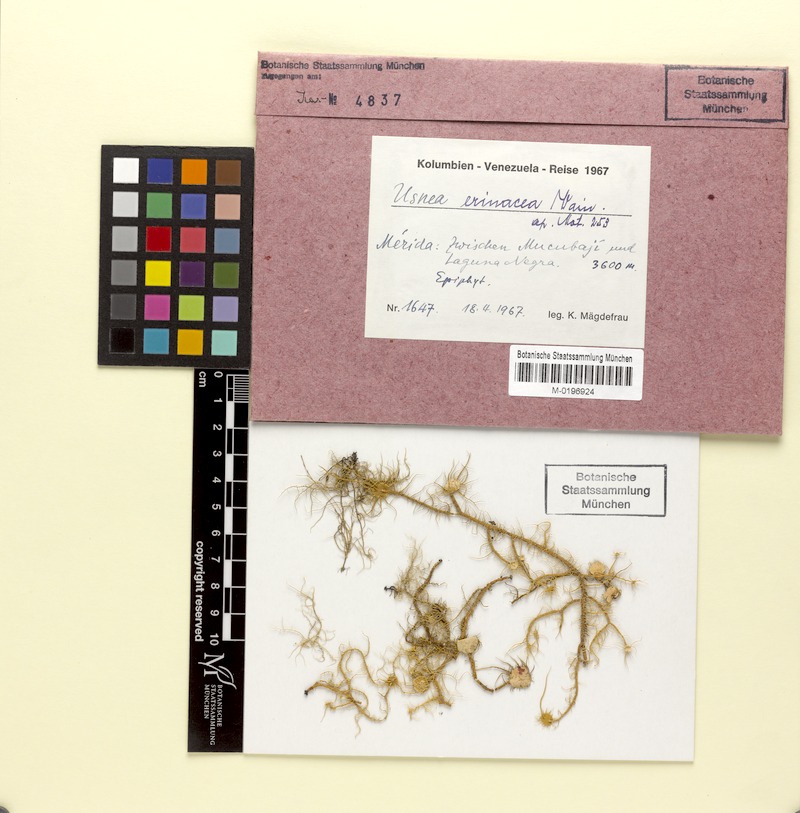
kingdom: Fungi
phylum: Ascomycota
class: Lecanoromycetes
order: Lecanorales
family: Parmeliaceae
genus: Usnea
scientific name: Usnea erinacea
